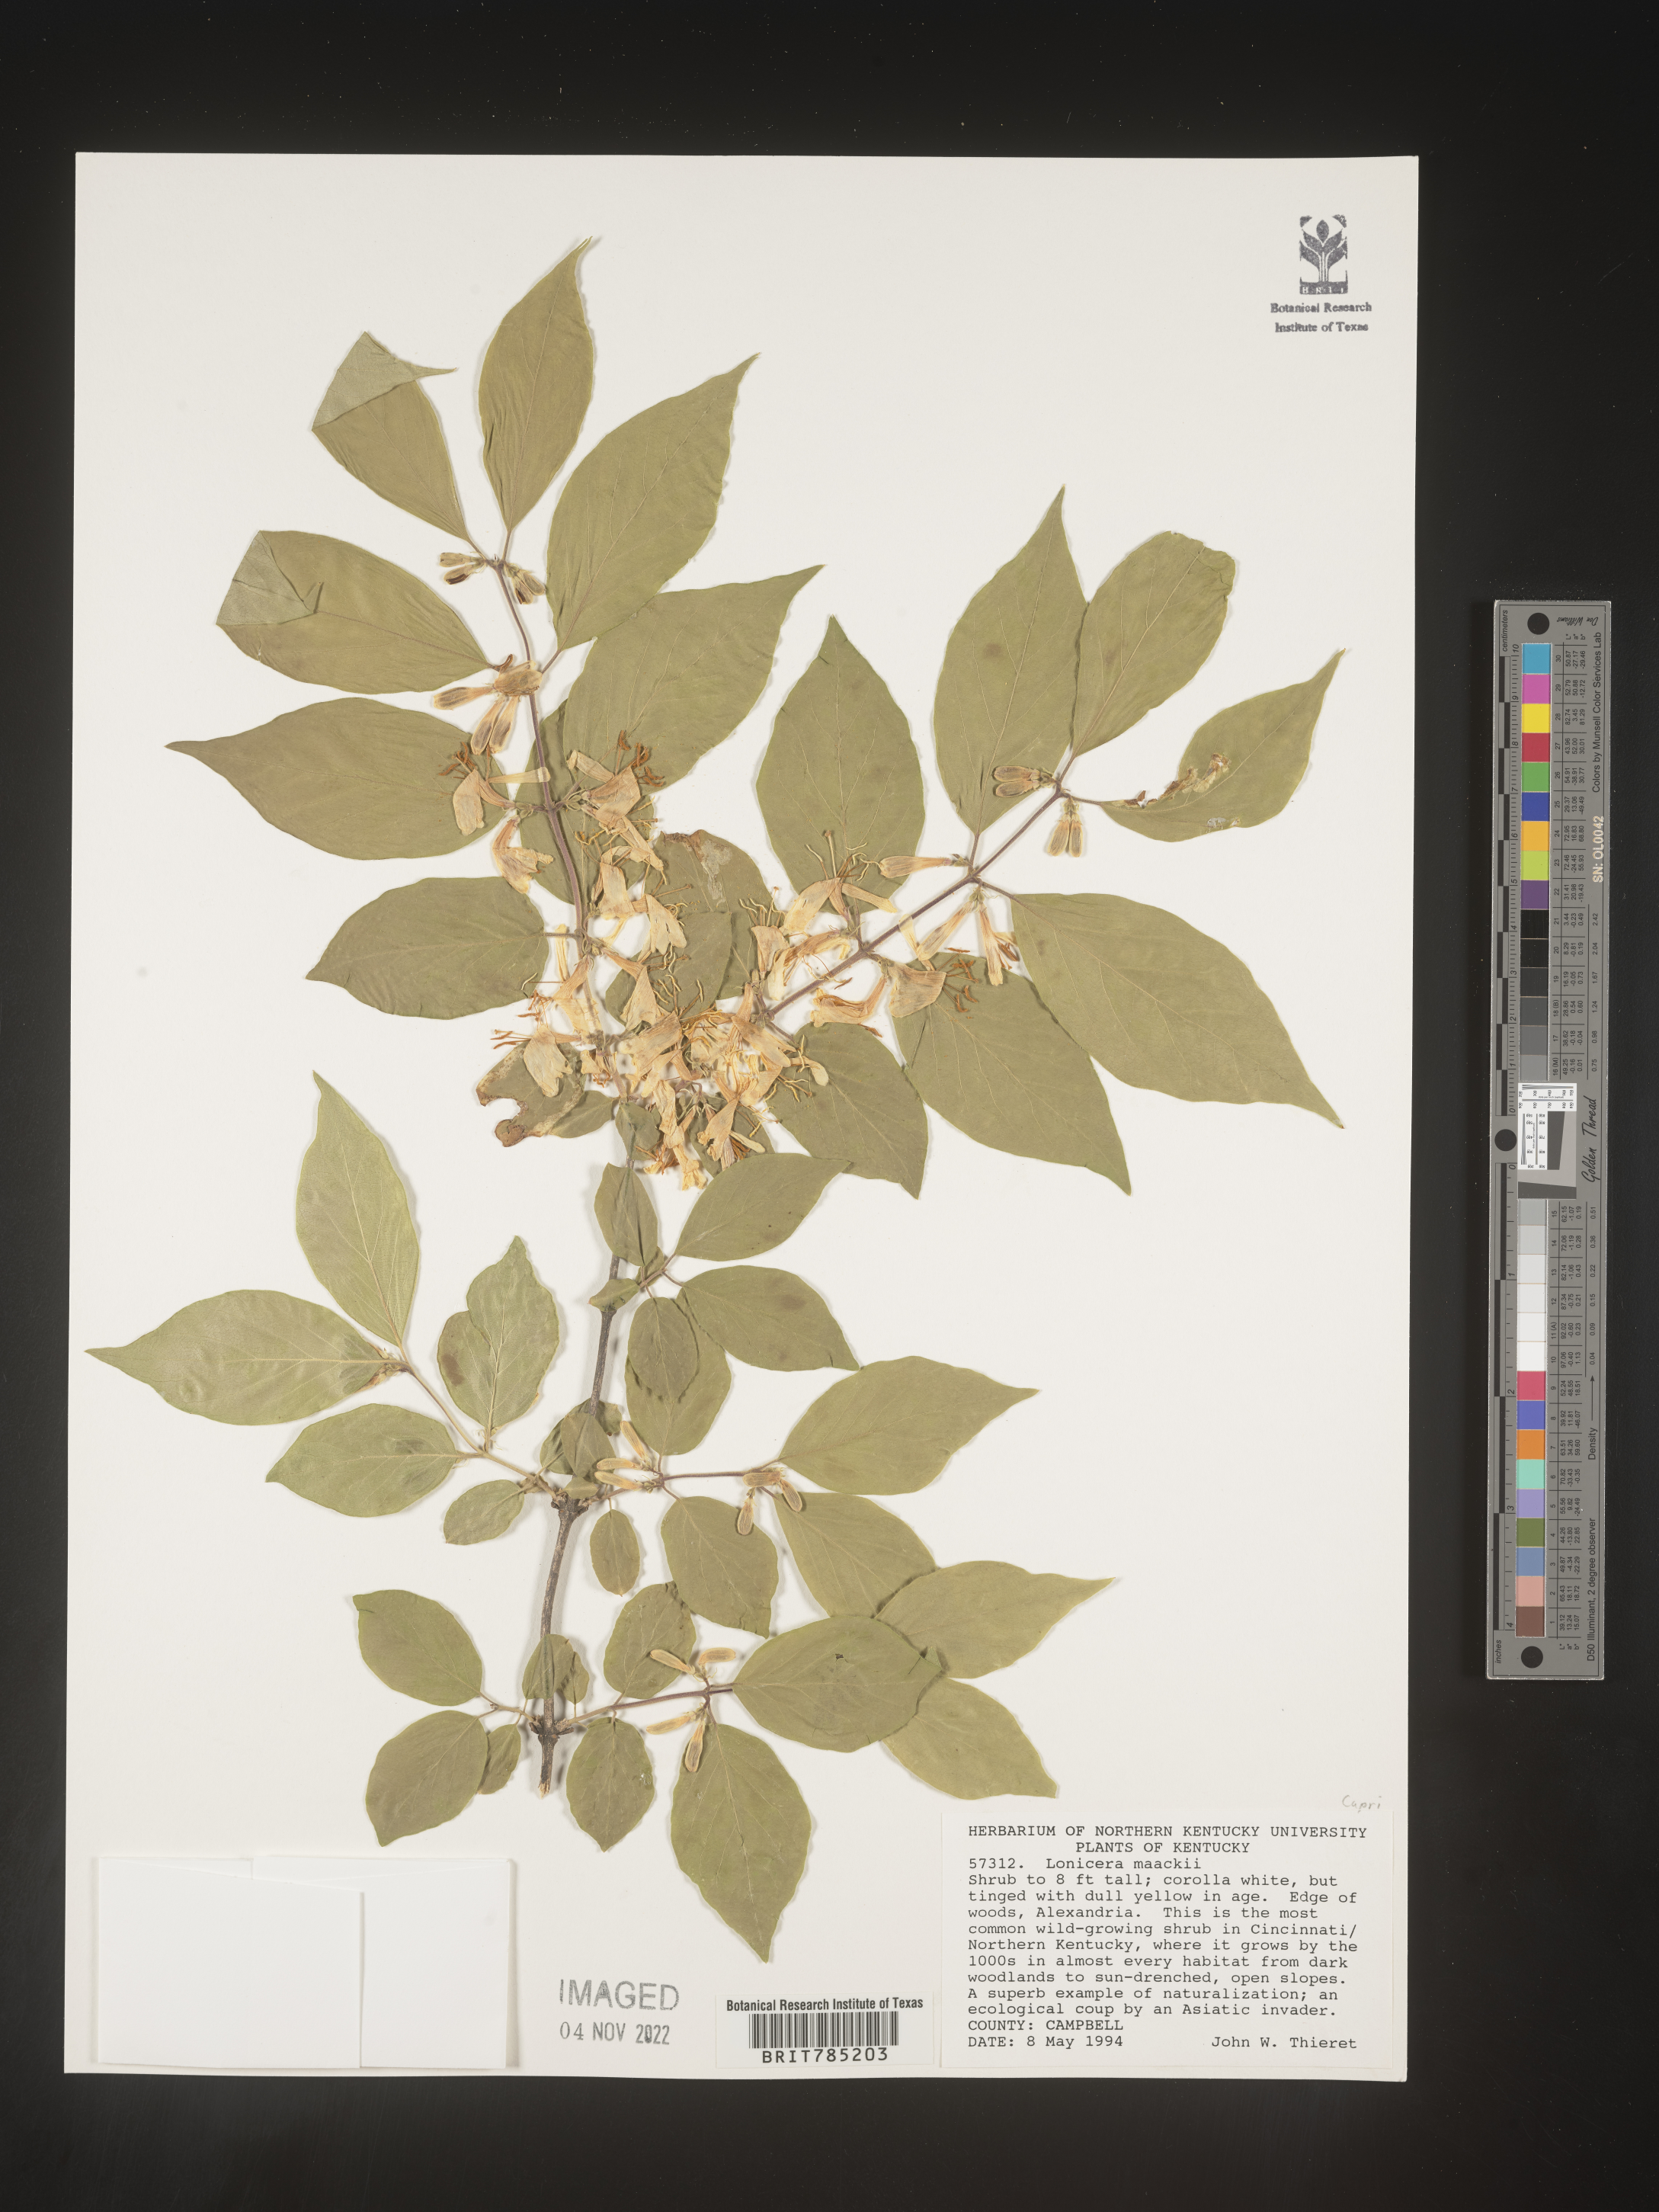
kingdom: Plantae
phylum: Tracheophyta
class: Magnoliopsida
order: Dipsacales
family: Caprifoliaceae
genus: Lonicera
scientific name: Lonicera
